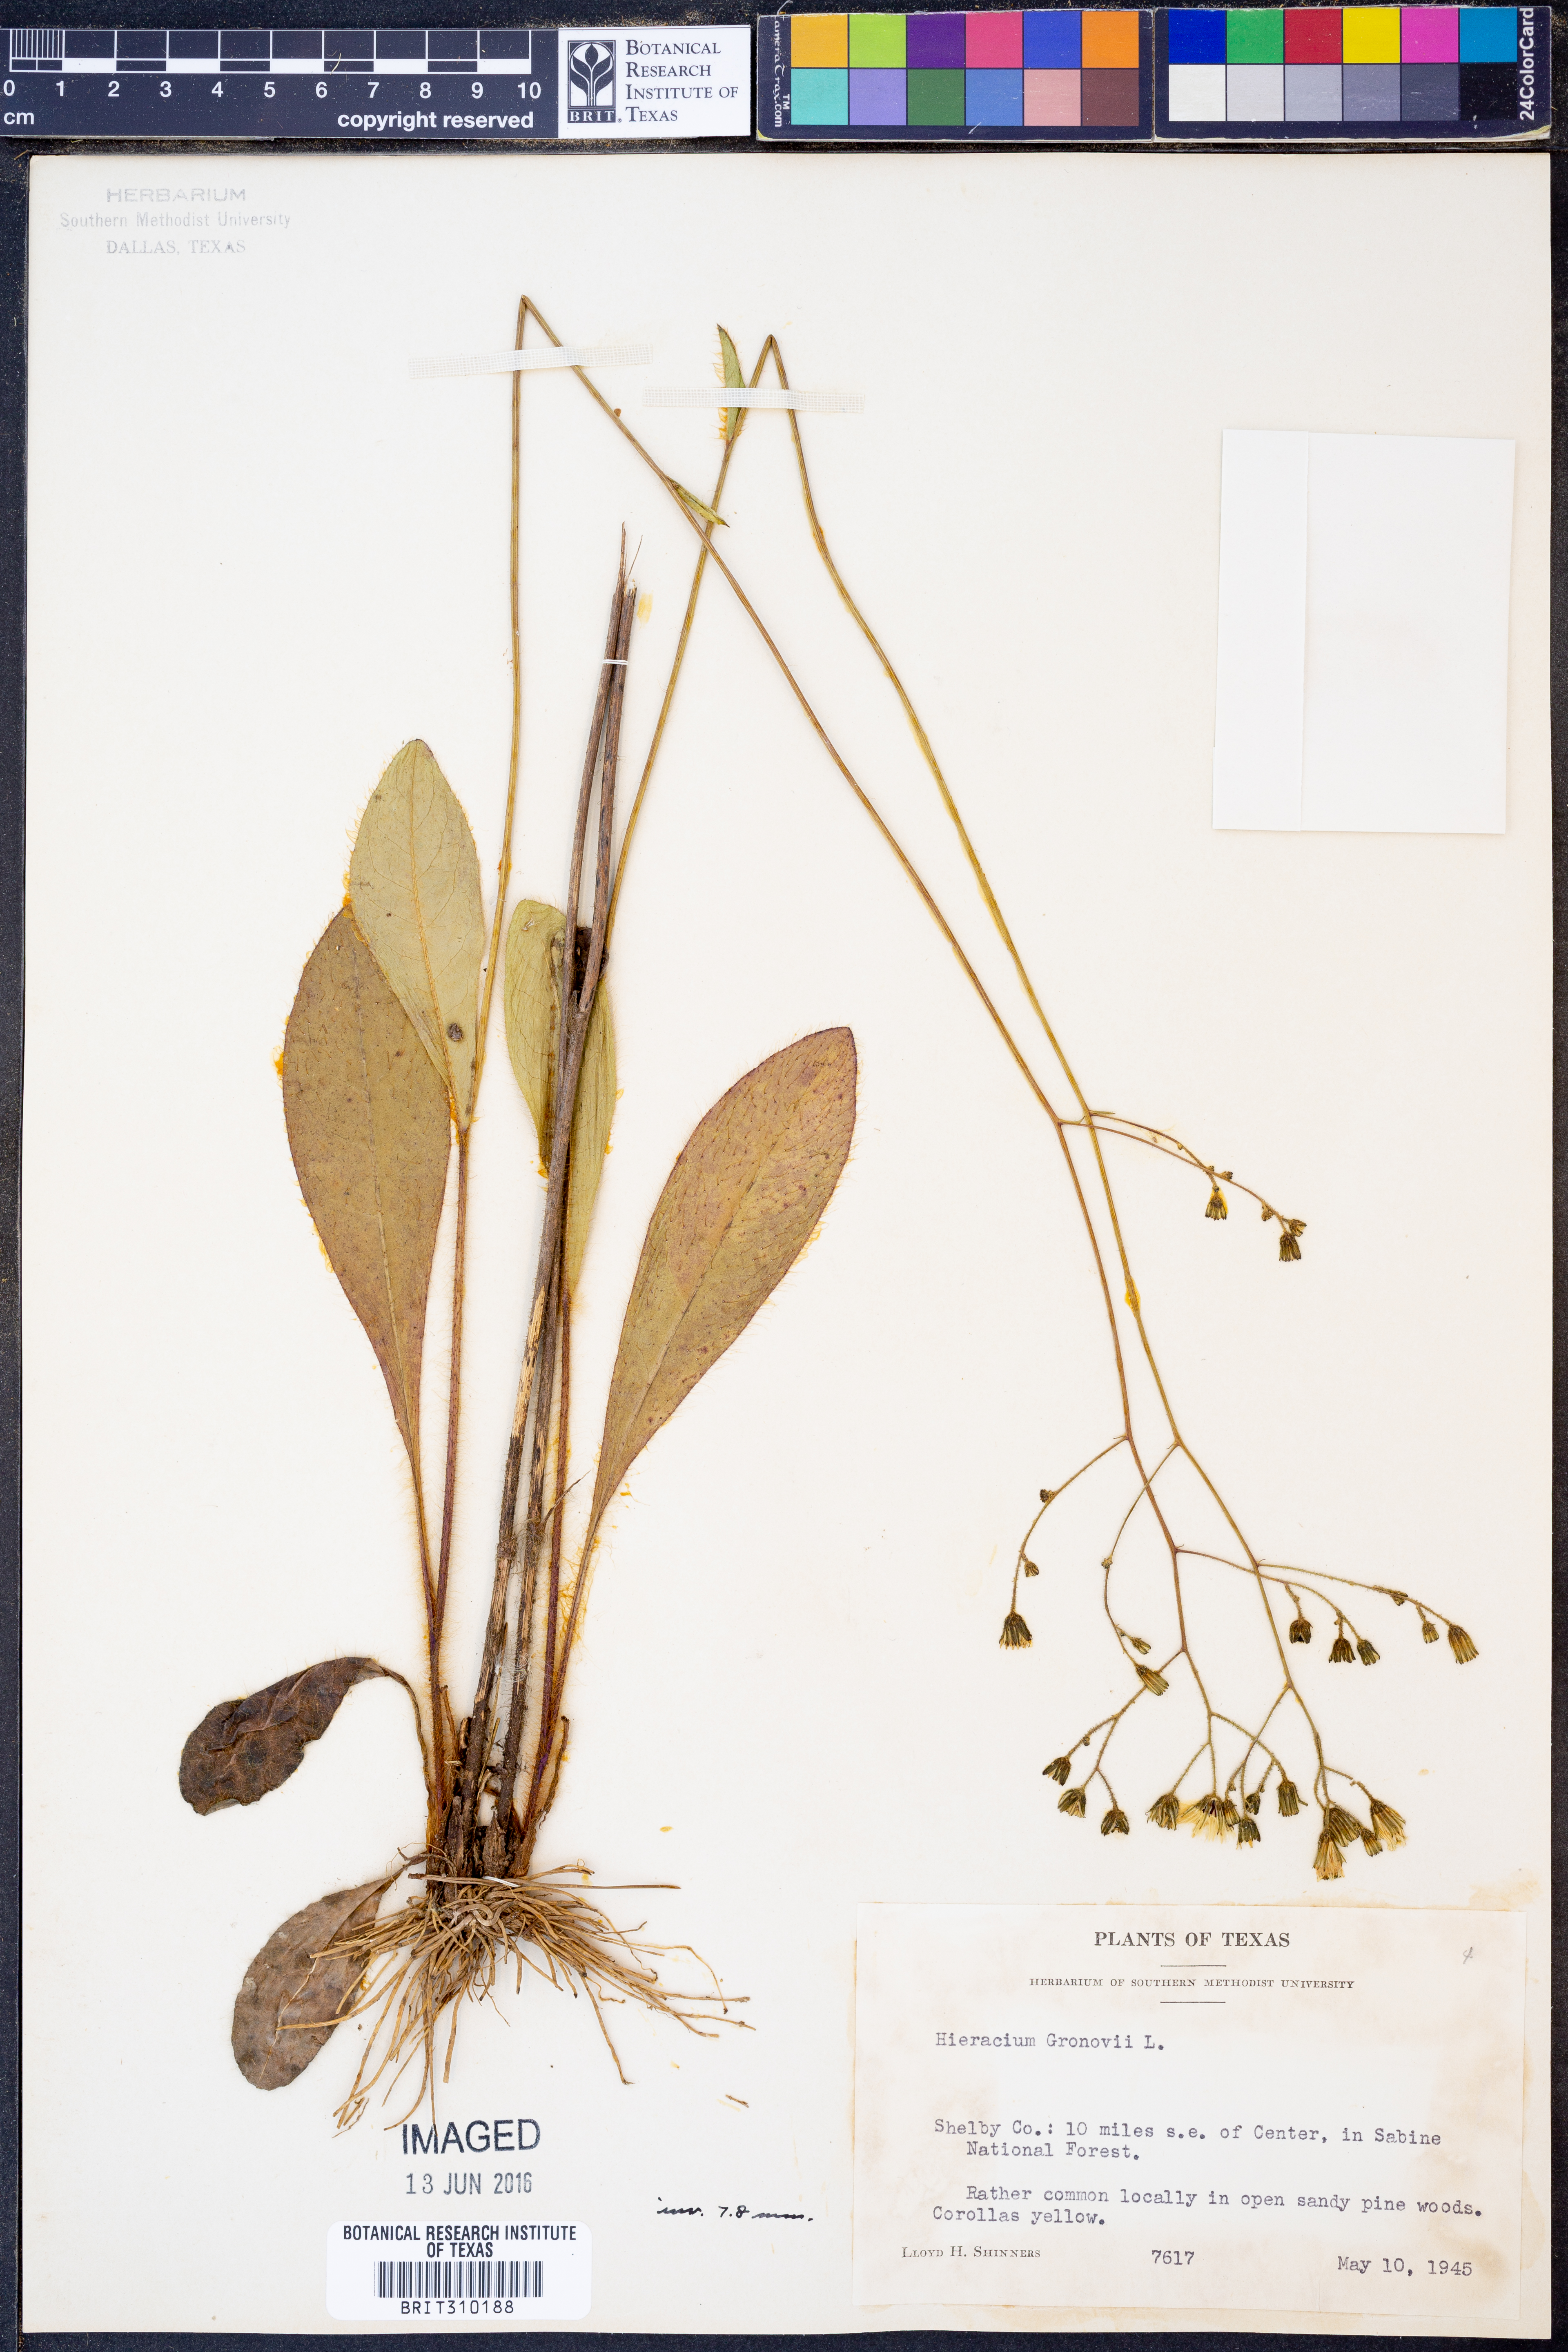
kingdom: Plantae
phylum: Tracheophyta
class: Magnoliopsida
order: Asterales
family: Asteraceae
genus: Hieracium
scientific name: Hieracium gronovii
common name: Beaked hawkweed
